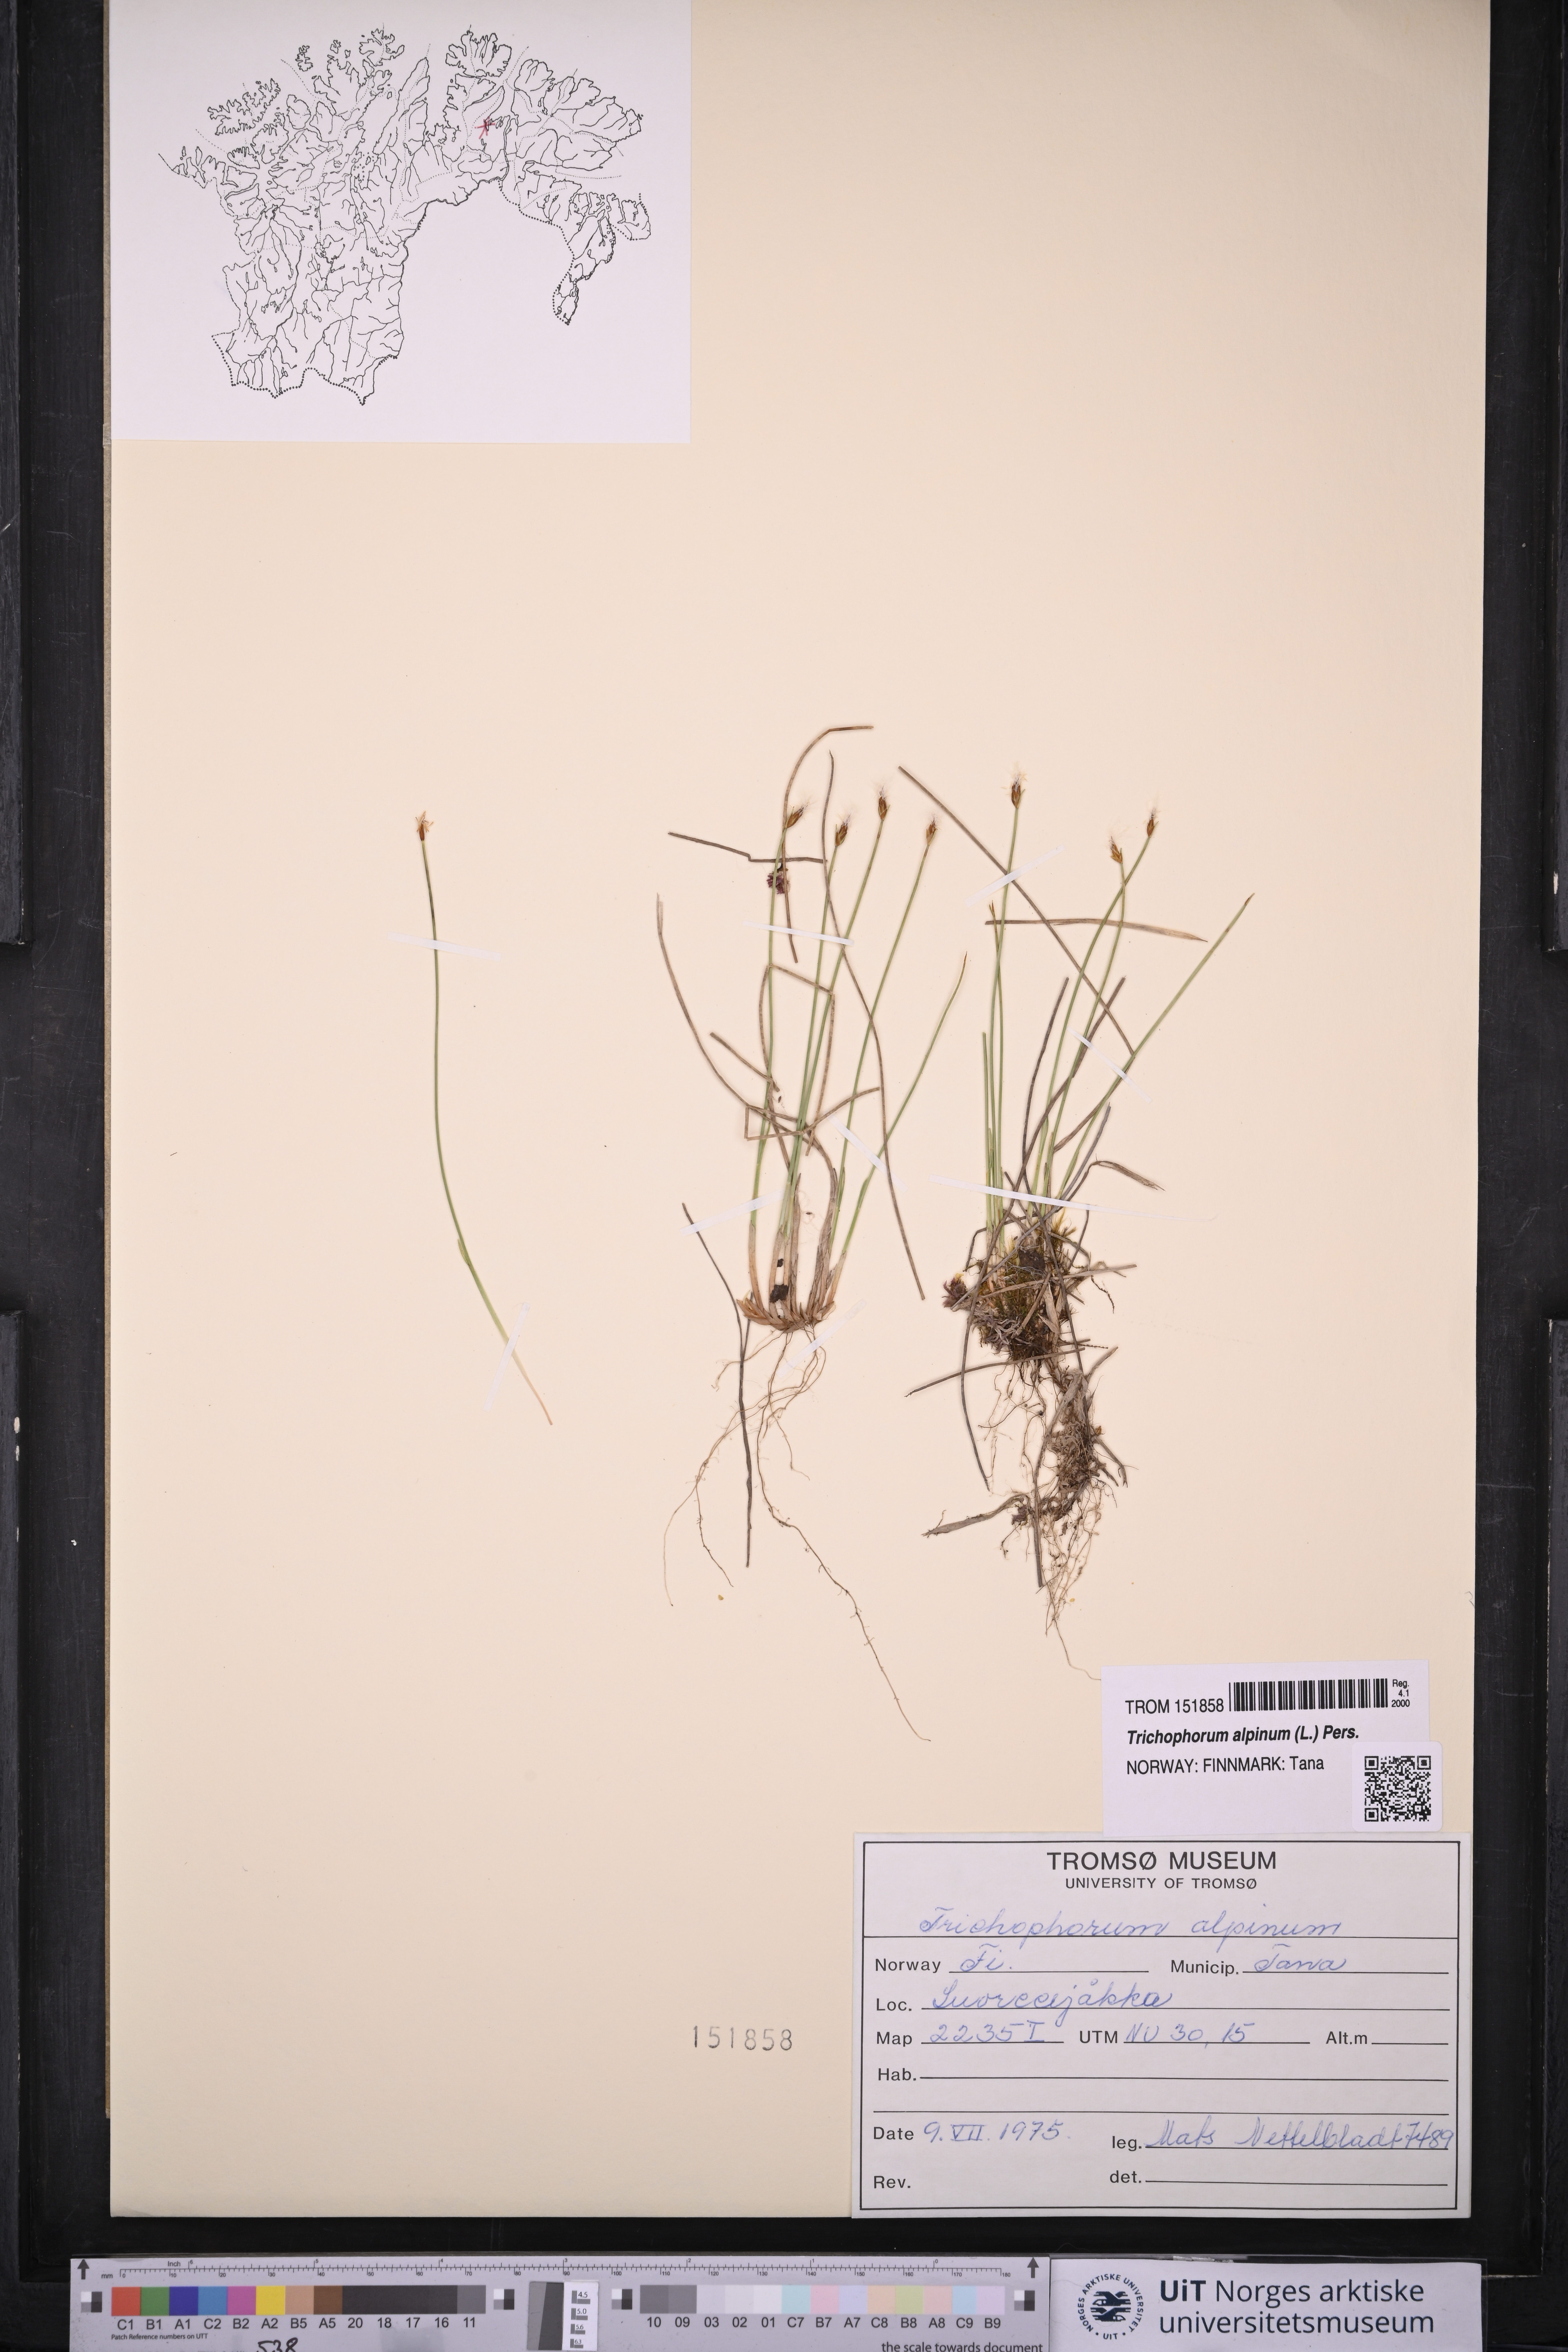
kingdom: Plantae
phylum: Tracheophyta
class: Liliopsida
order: Poales
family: Cyperaceae
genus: Trichophorum
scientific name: Trichophorum alpinum
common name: Alpine bulrush
